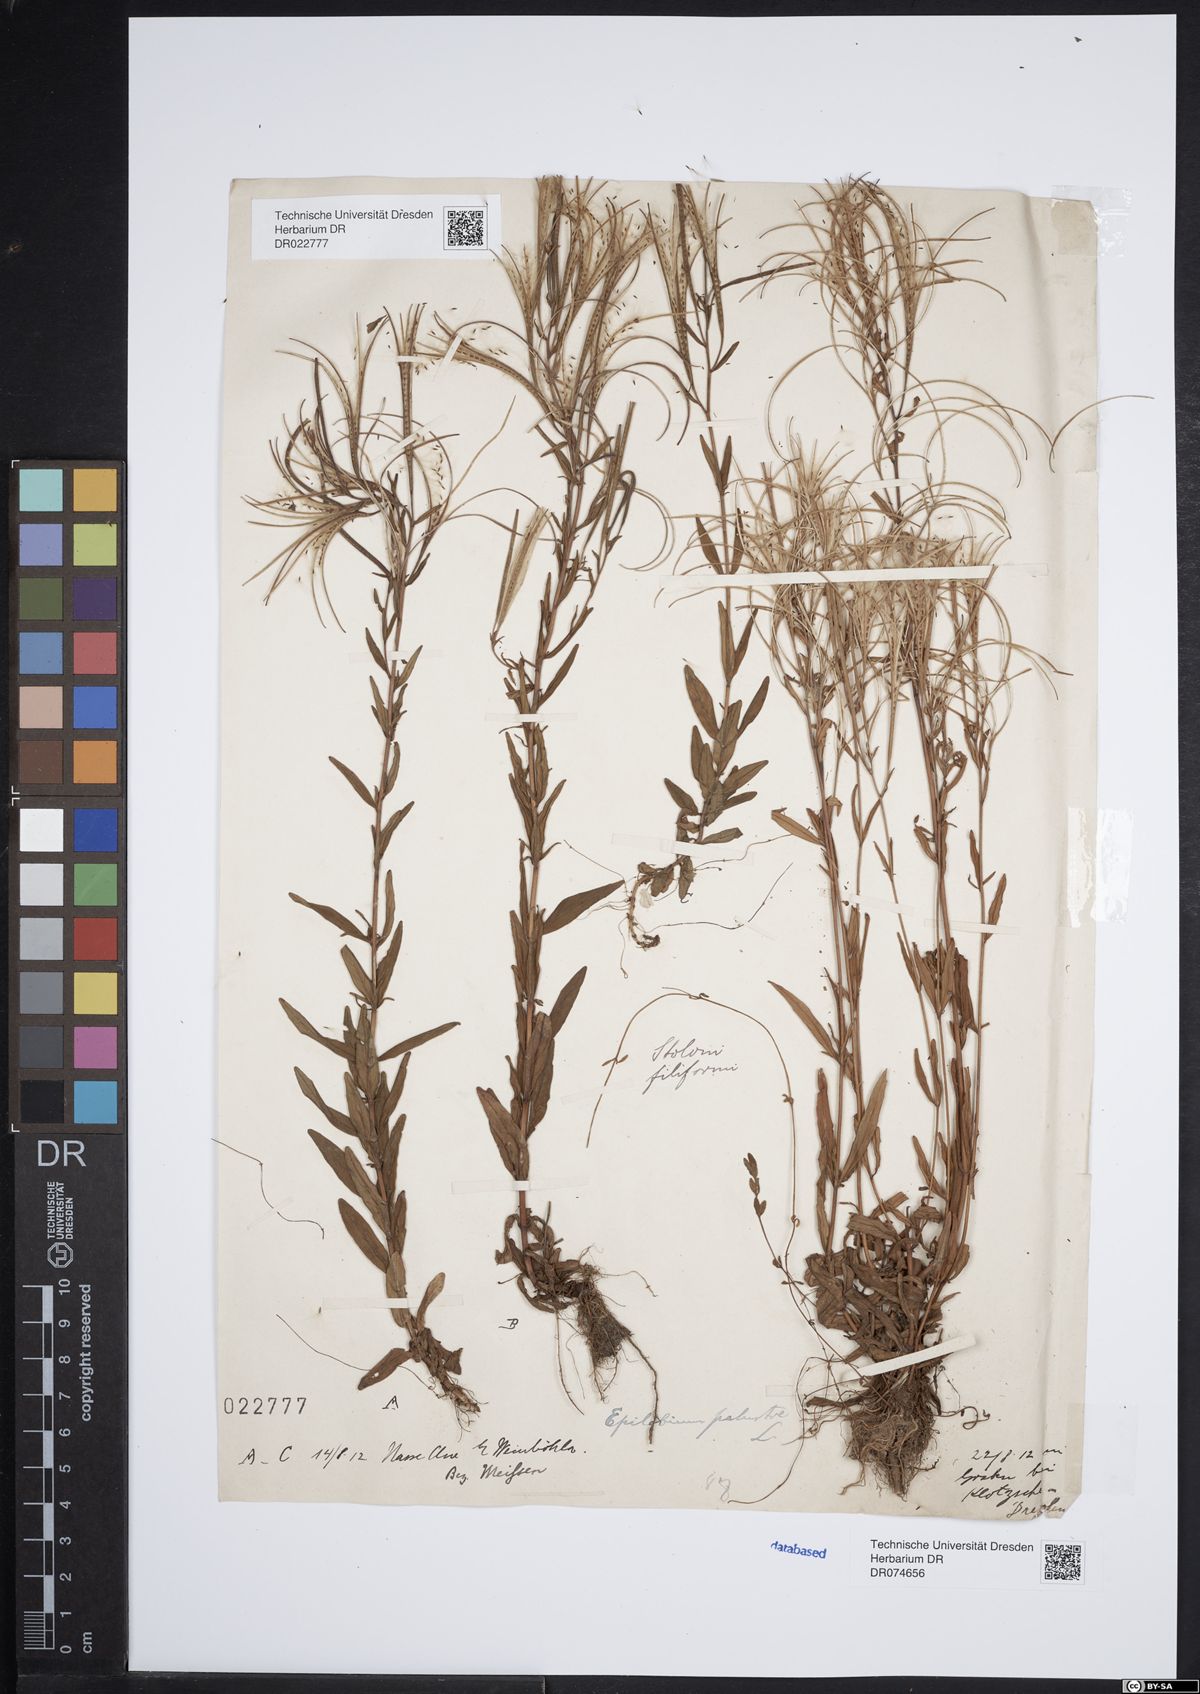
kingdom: Plantae
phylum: Tracheophyta
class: Magnoliopsida
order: Myrtales
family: Onagraceae
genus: Epilobium
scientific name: Epilobium palustre
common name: Marsh willowherb
